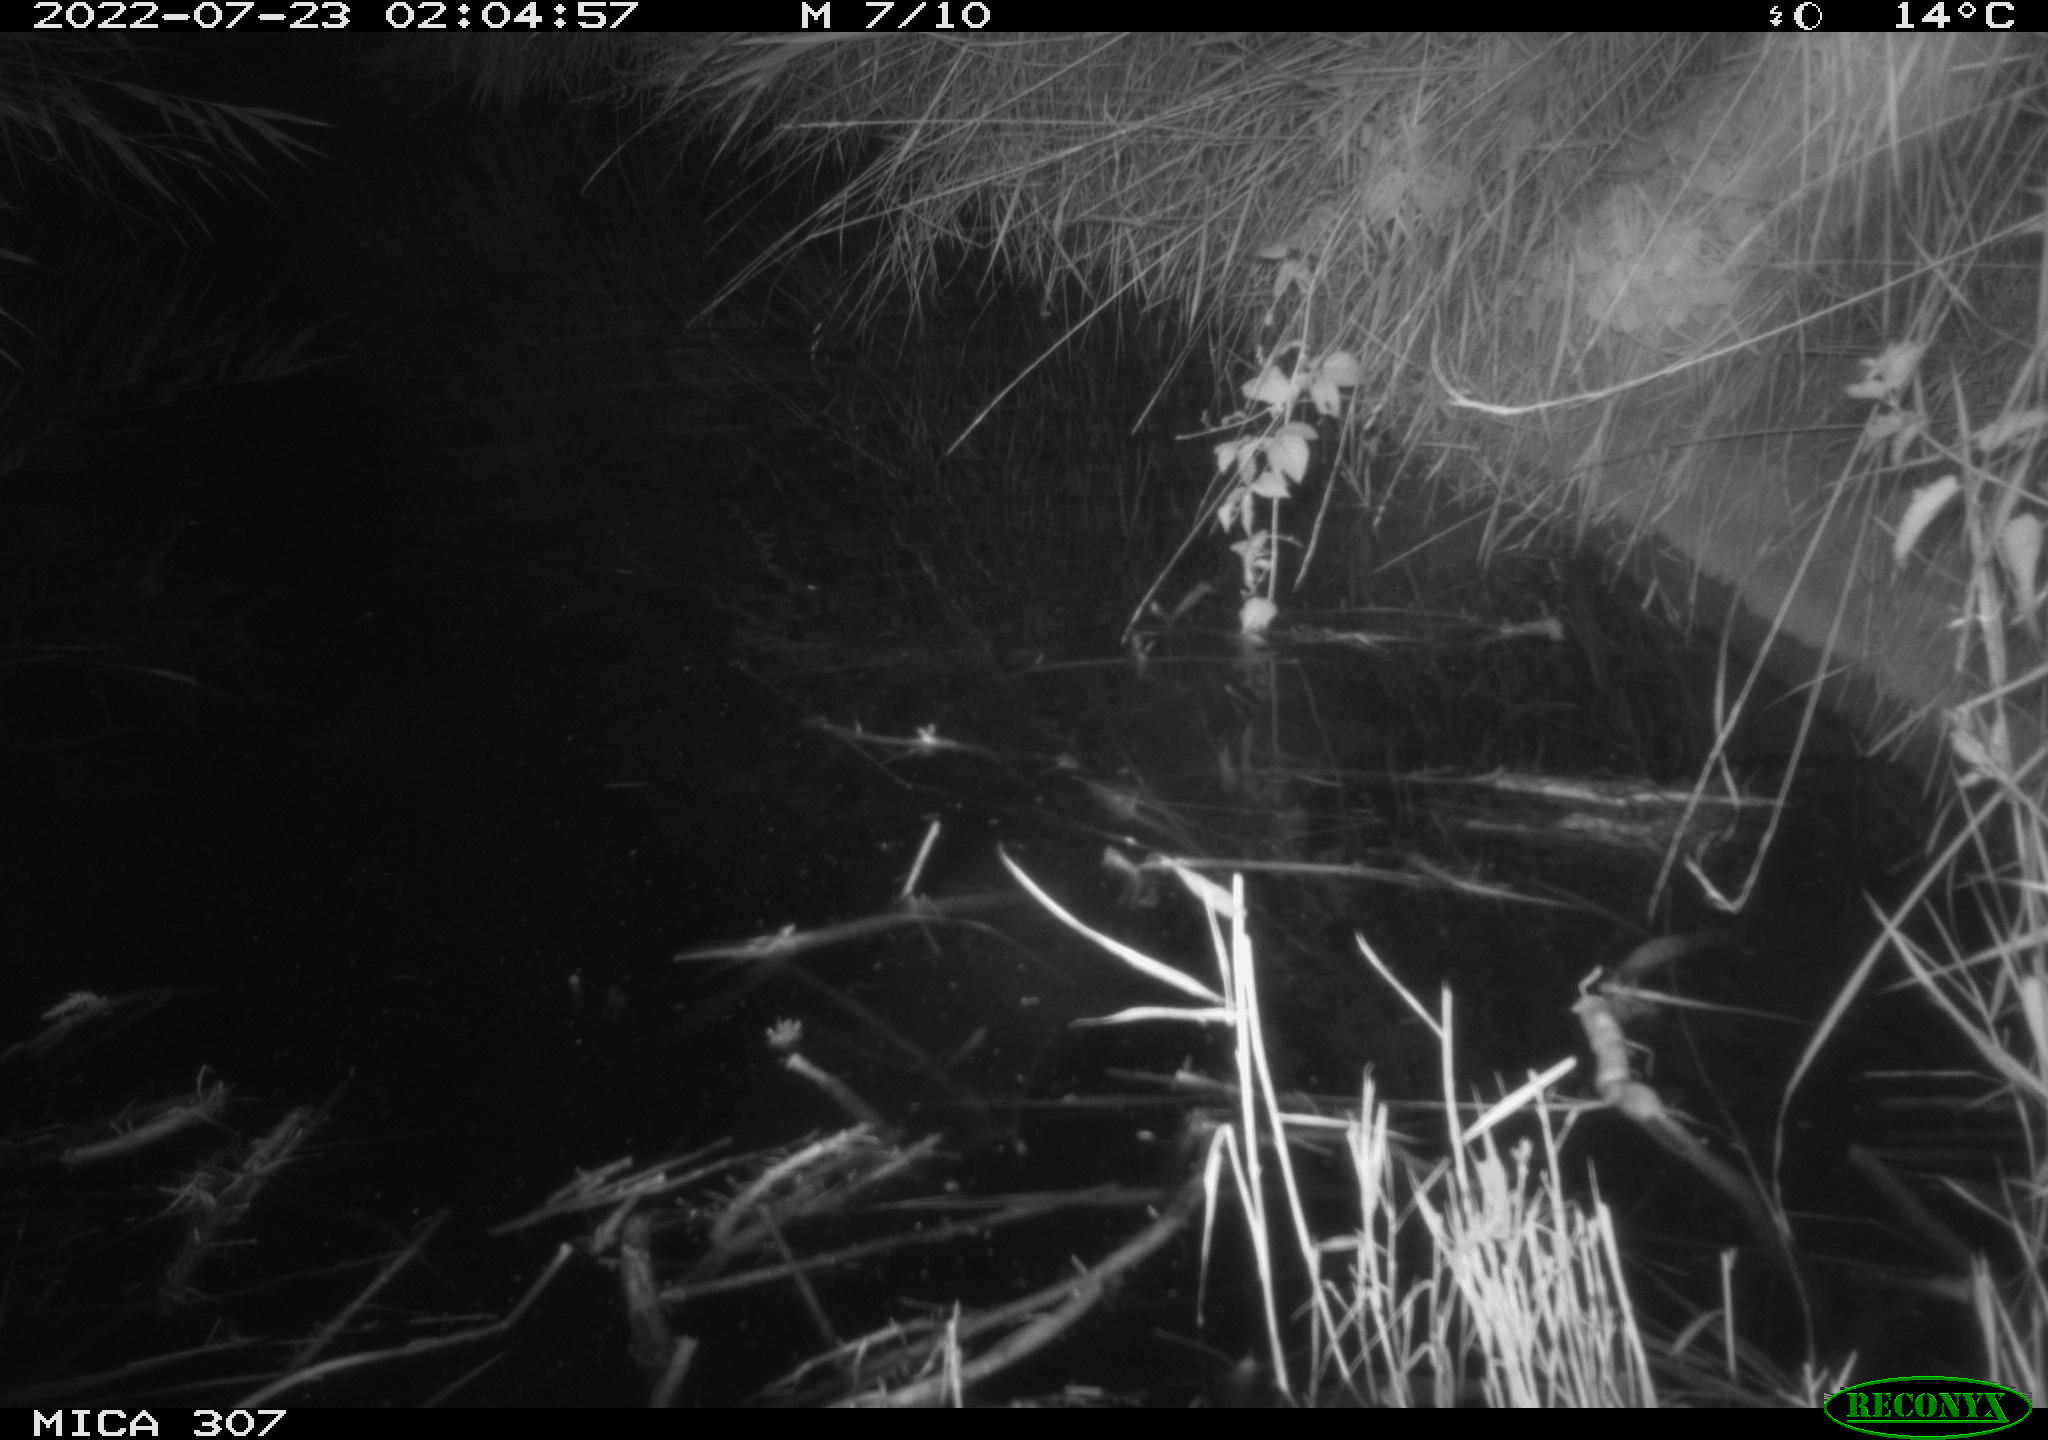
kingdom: Animalia
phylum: Chordata
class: Mammalia
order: Rodentia
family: Muridae
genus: Rattus
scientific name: Rattus norvegicus
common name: Brown rat
